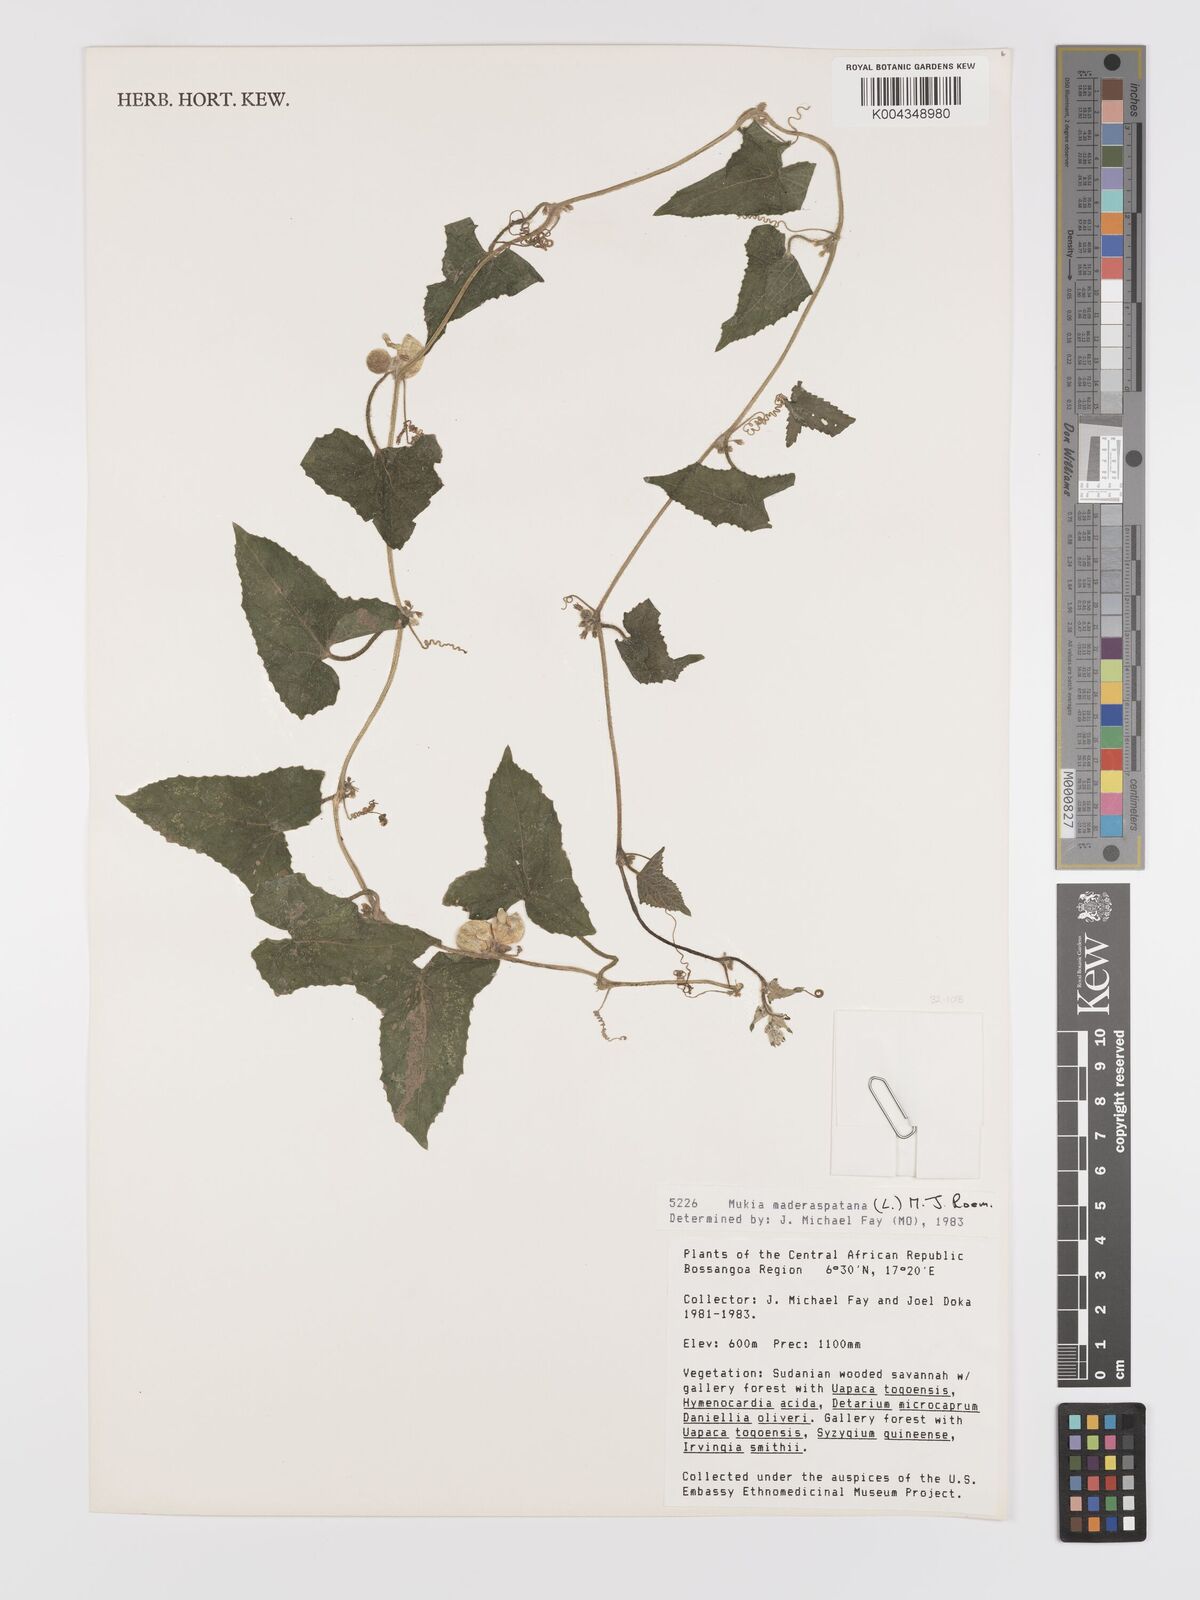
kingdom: Plantae
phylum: Tracheophyta
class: Magnoliopsida
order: Cucurbitales
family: Cucurbitaceae
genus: Cucumis
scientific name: Cucumis maderaspatanus
